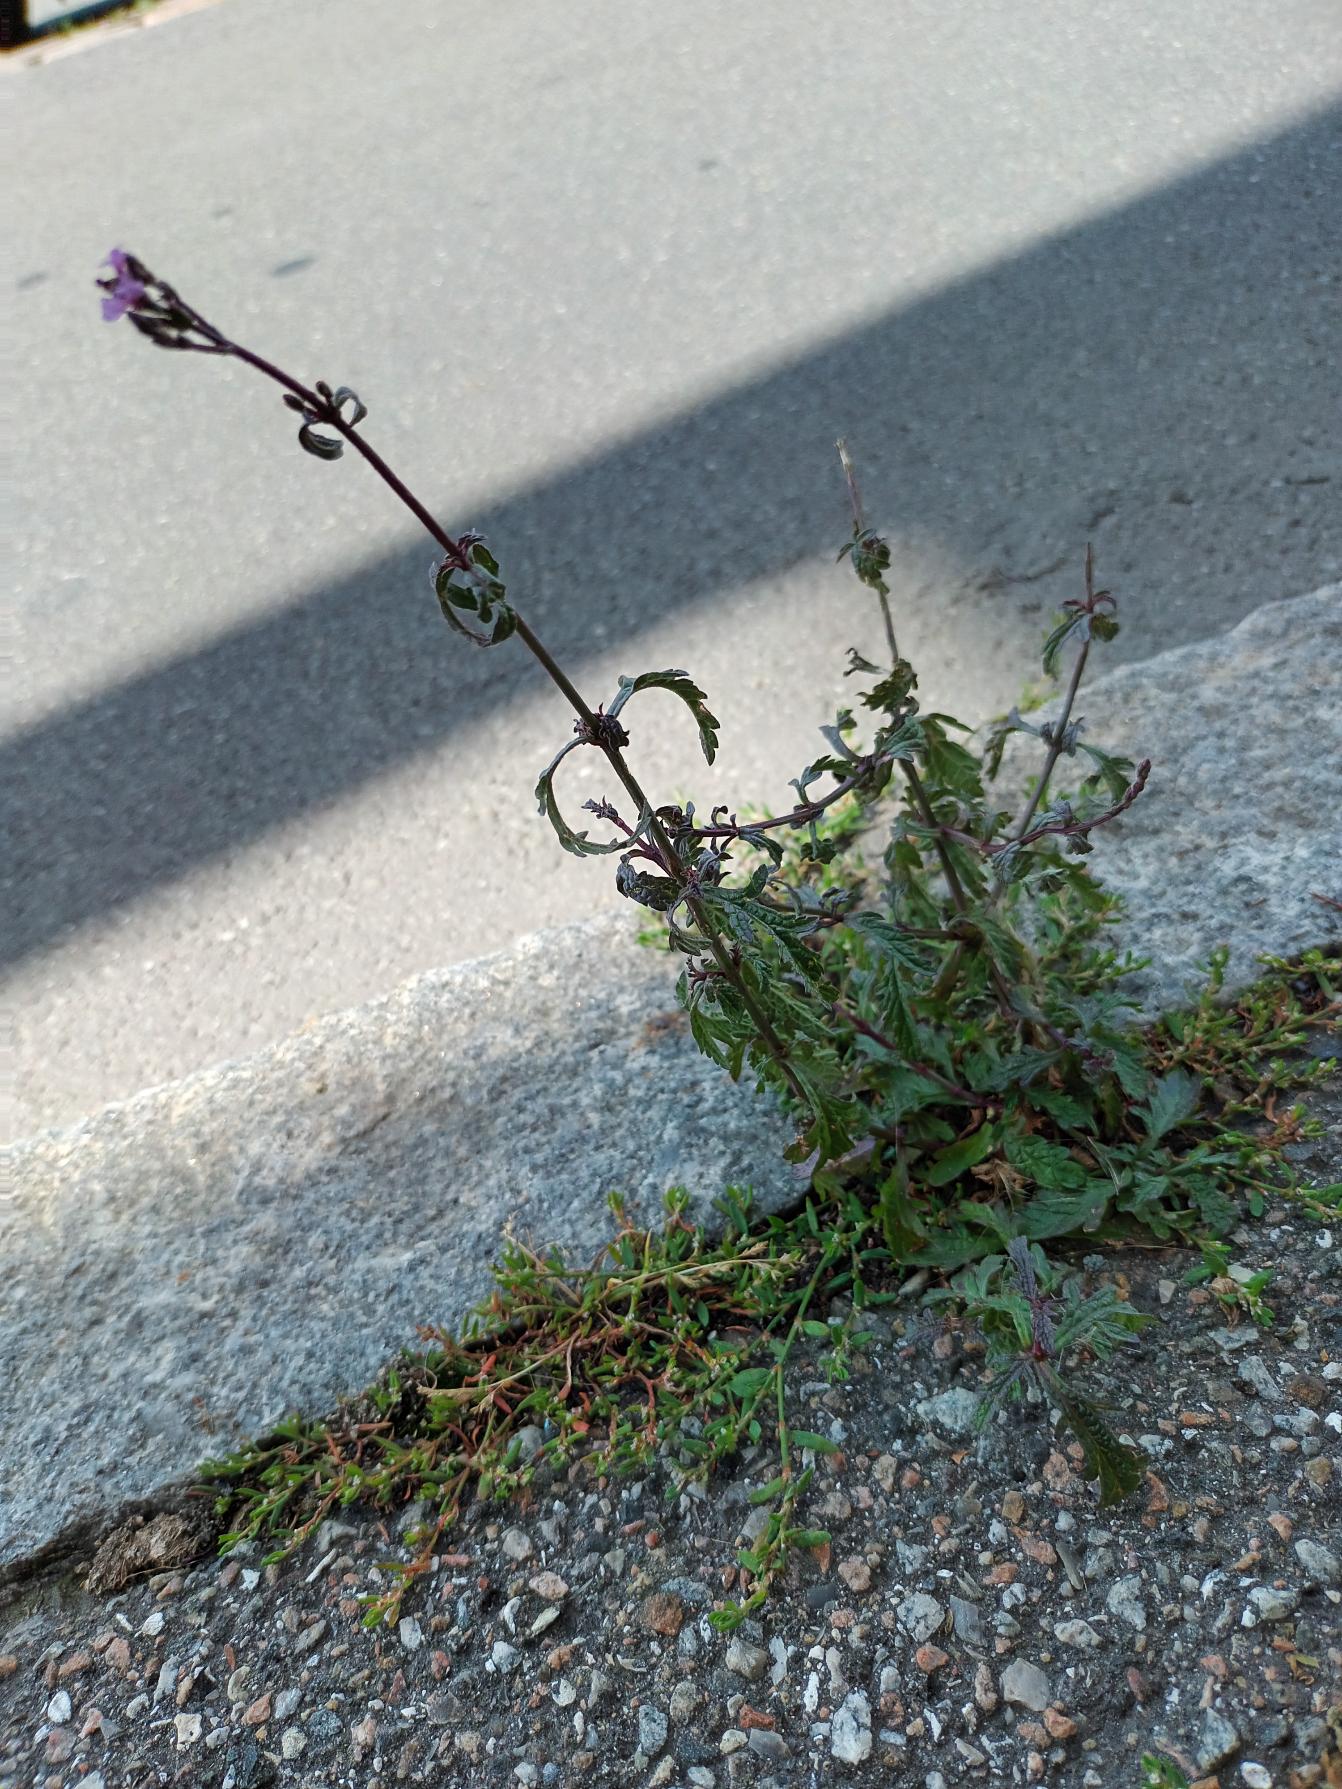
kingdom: Plantae
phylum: Tracheophyta
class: Magnoliopsida
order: Lamiales
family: Verbenaceae
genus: Verbena
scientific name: Verbena officinalis
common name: Læge-jernurt
